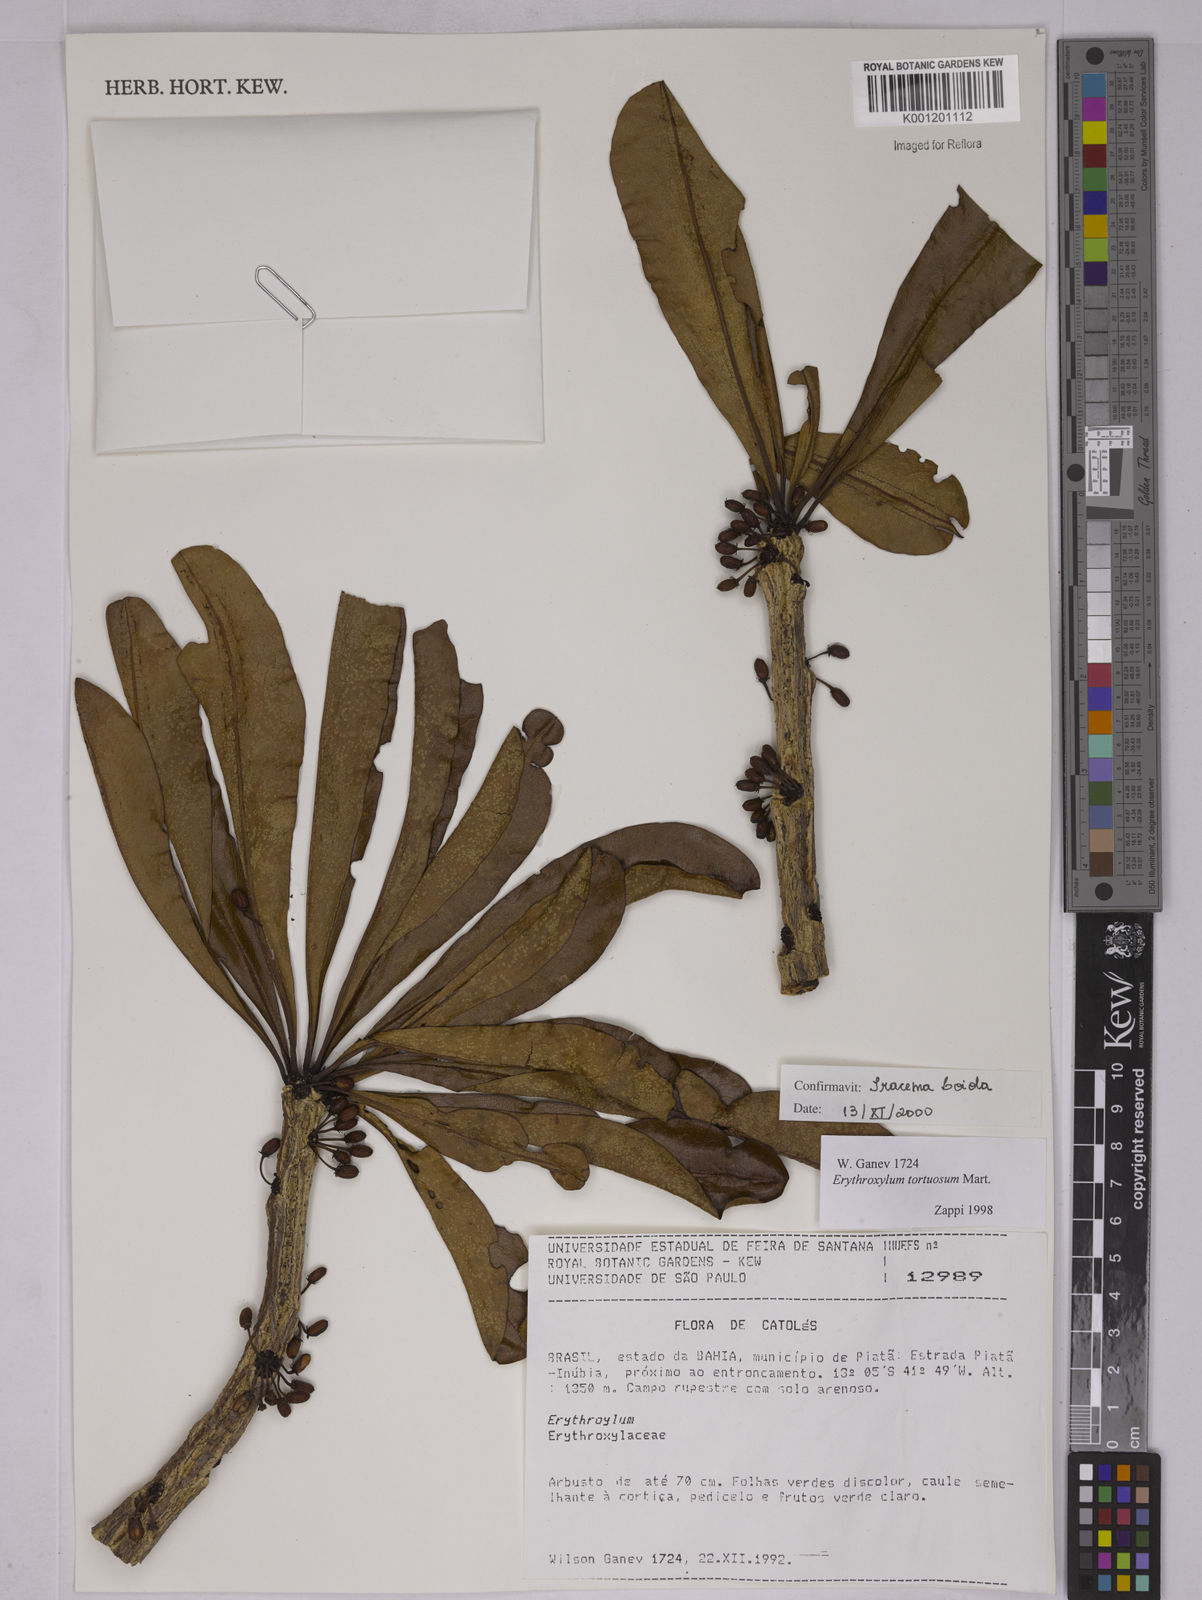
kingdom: Plantae
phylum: Tracheophyta
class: Magnoliopsida
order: Malpighiales
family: Erythroxylaceae
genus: Erythroxylum
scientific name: Erythroxylum tortuosum
